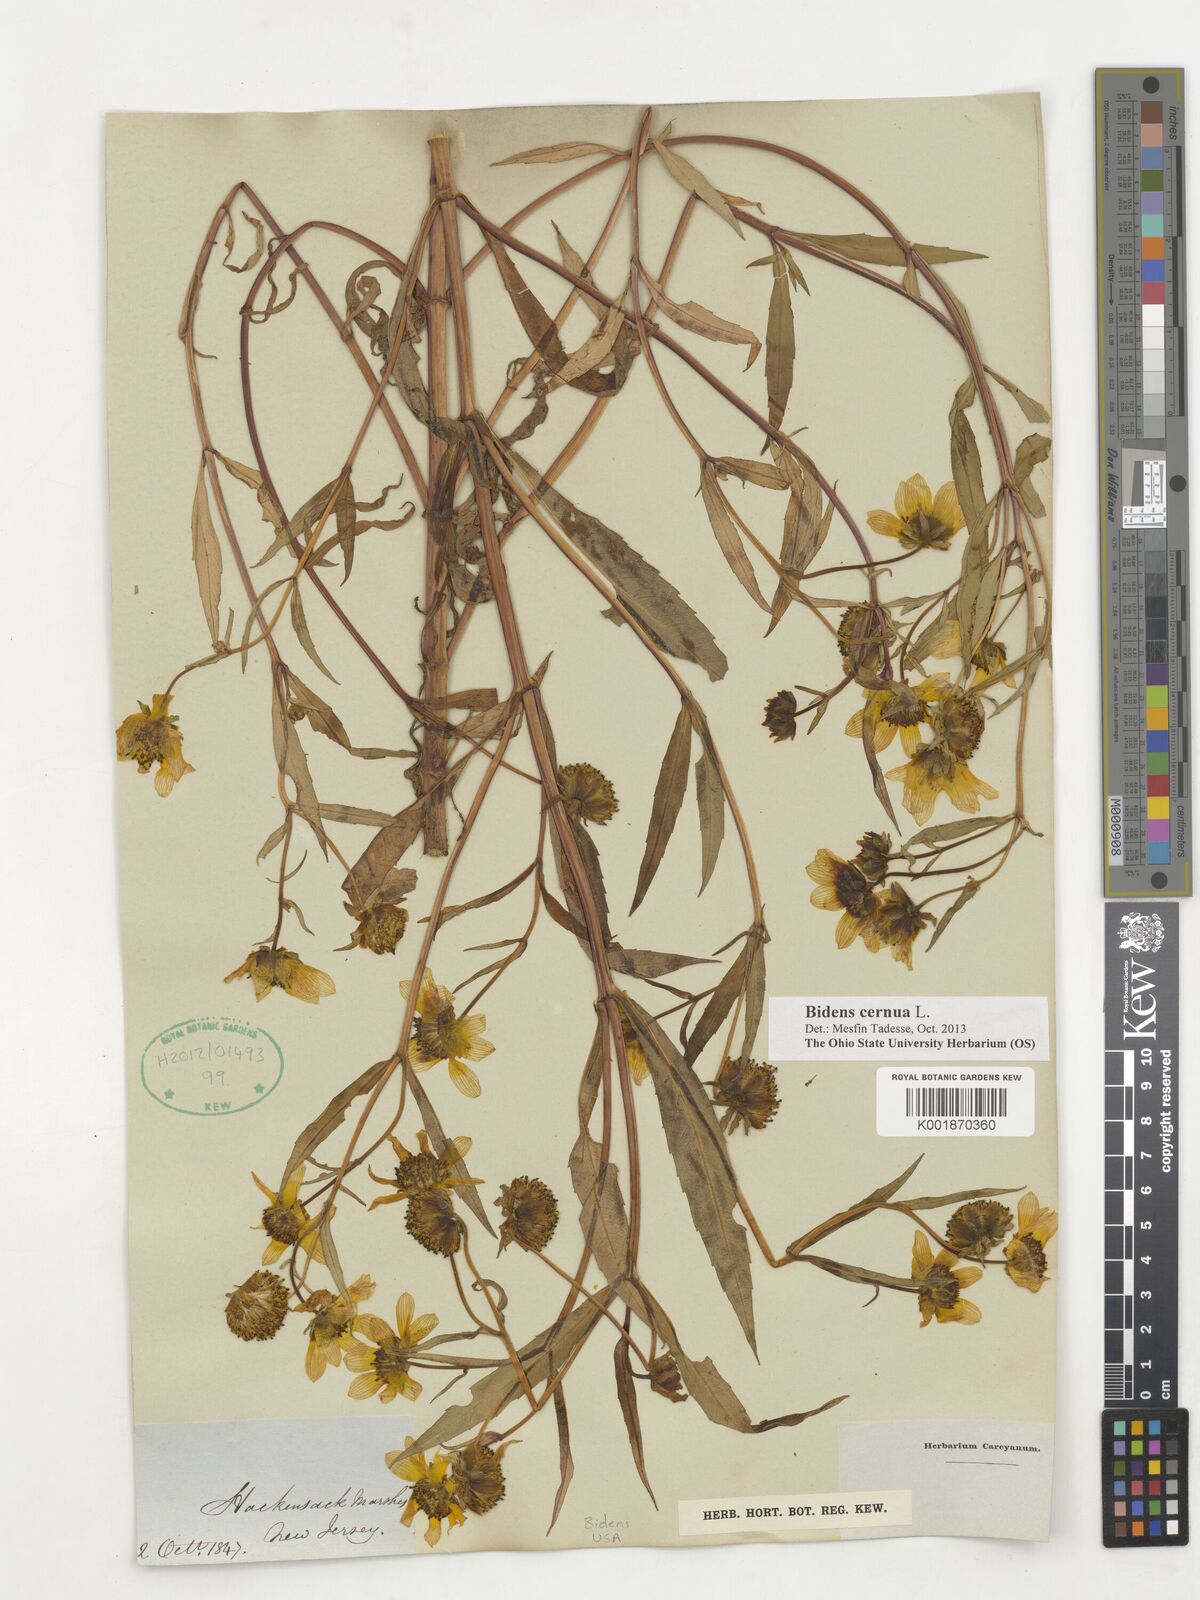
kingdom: Plantae
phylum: Tracheophyta
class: Magnoliopsida
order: Asterales
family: Asteraceae
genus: Bidens
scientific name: Bidens cernua
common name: Nodding bur-marigold
